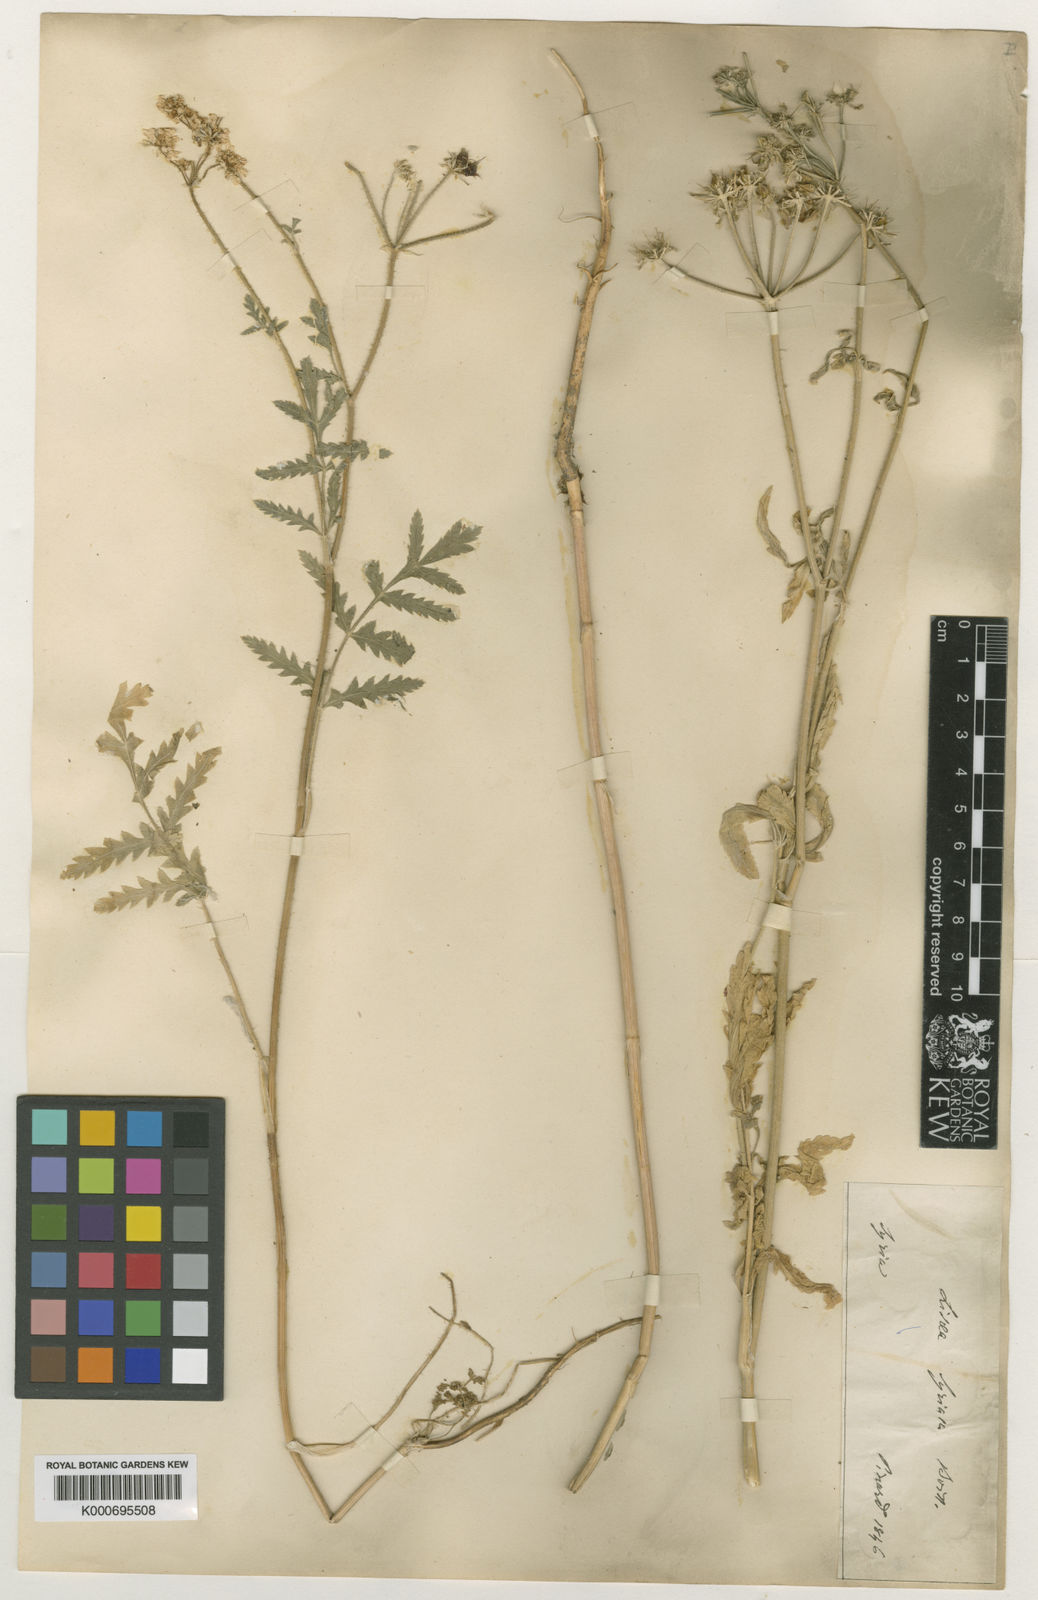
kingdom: Plantae
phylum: Tracheophyta
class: Magnoliopsida
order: Apiales
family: Apiaceae
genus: Lisaea
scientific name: Lisaea
